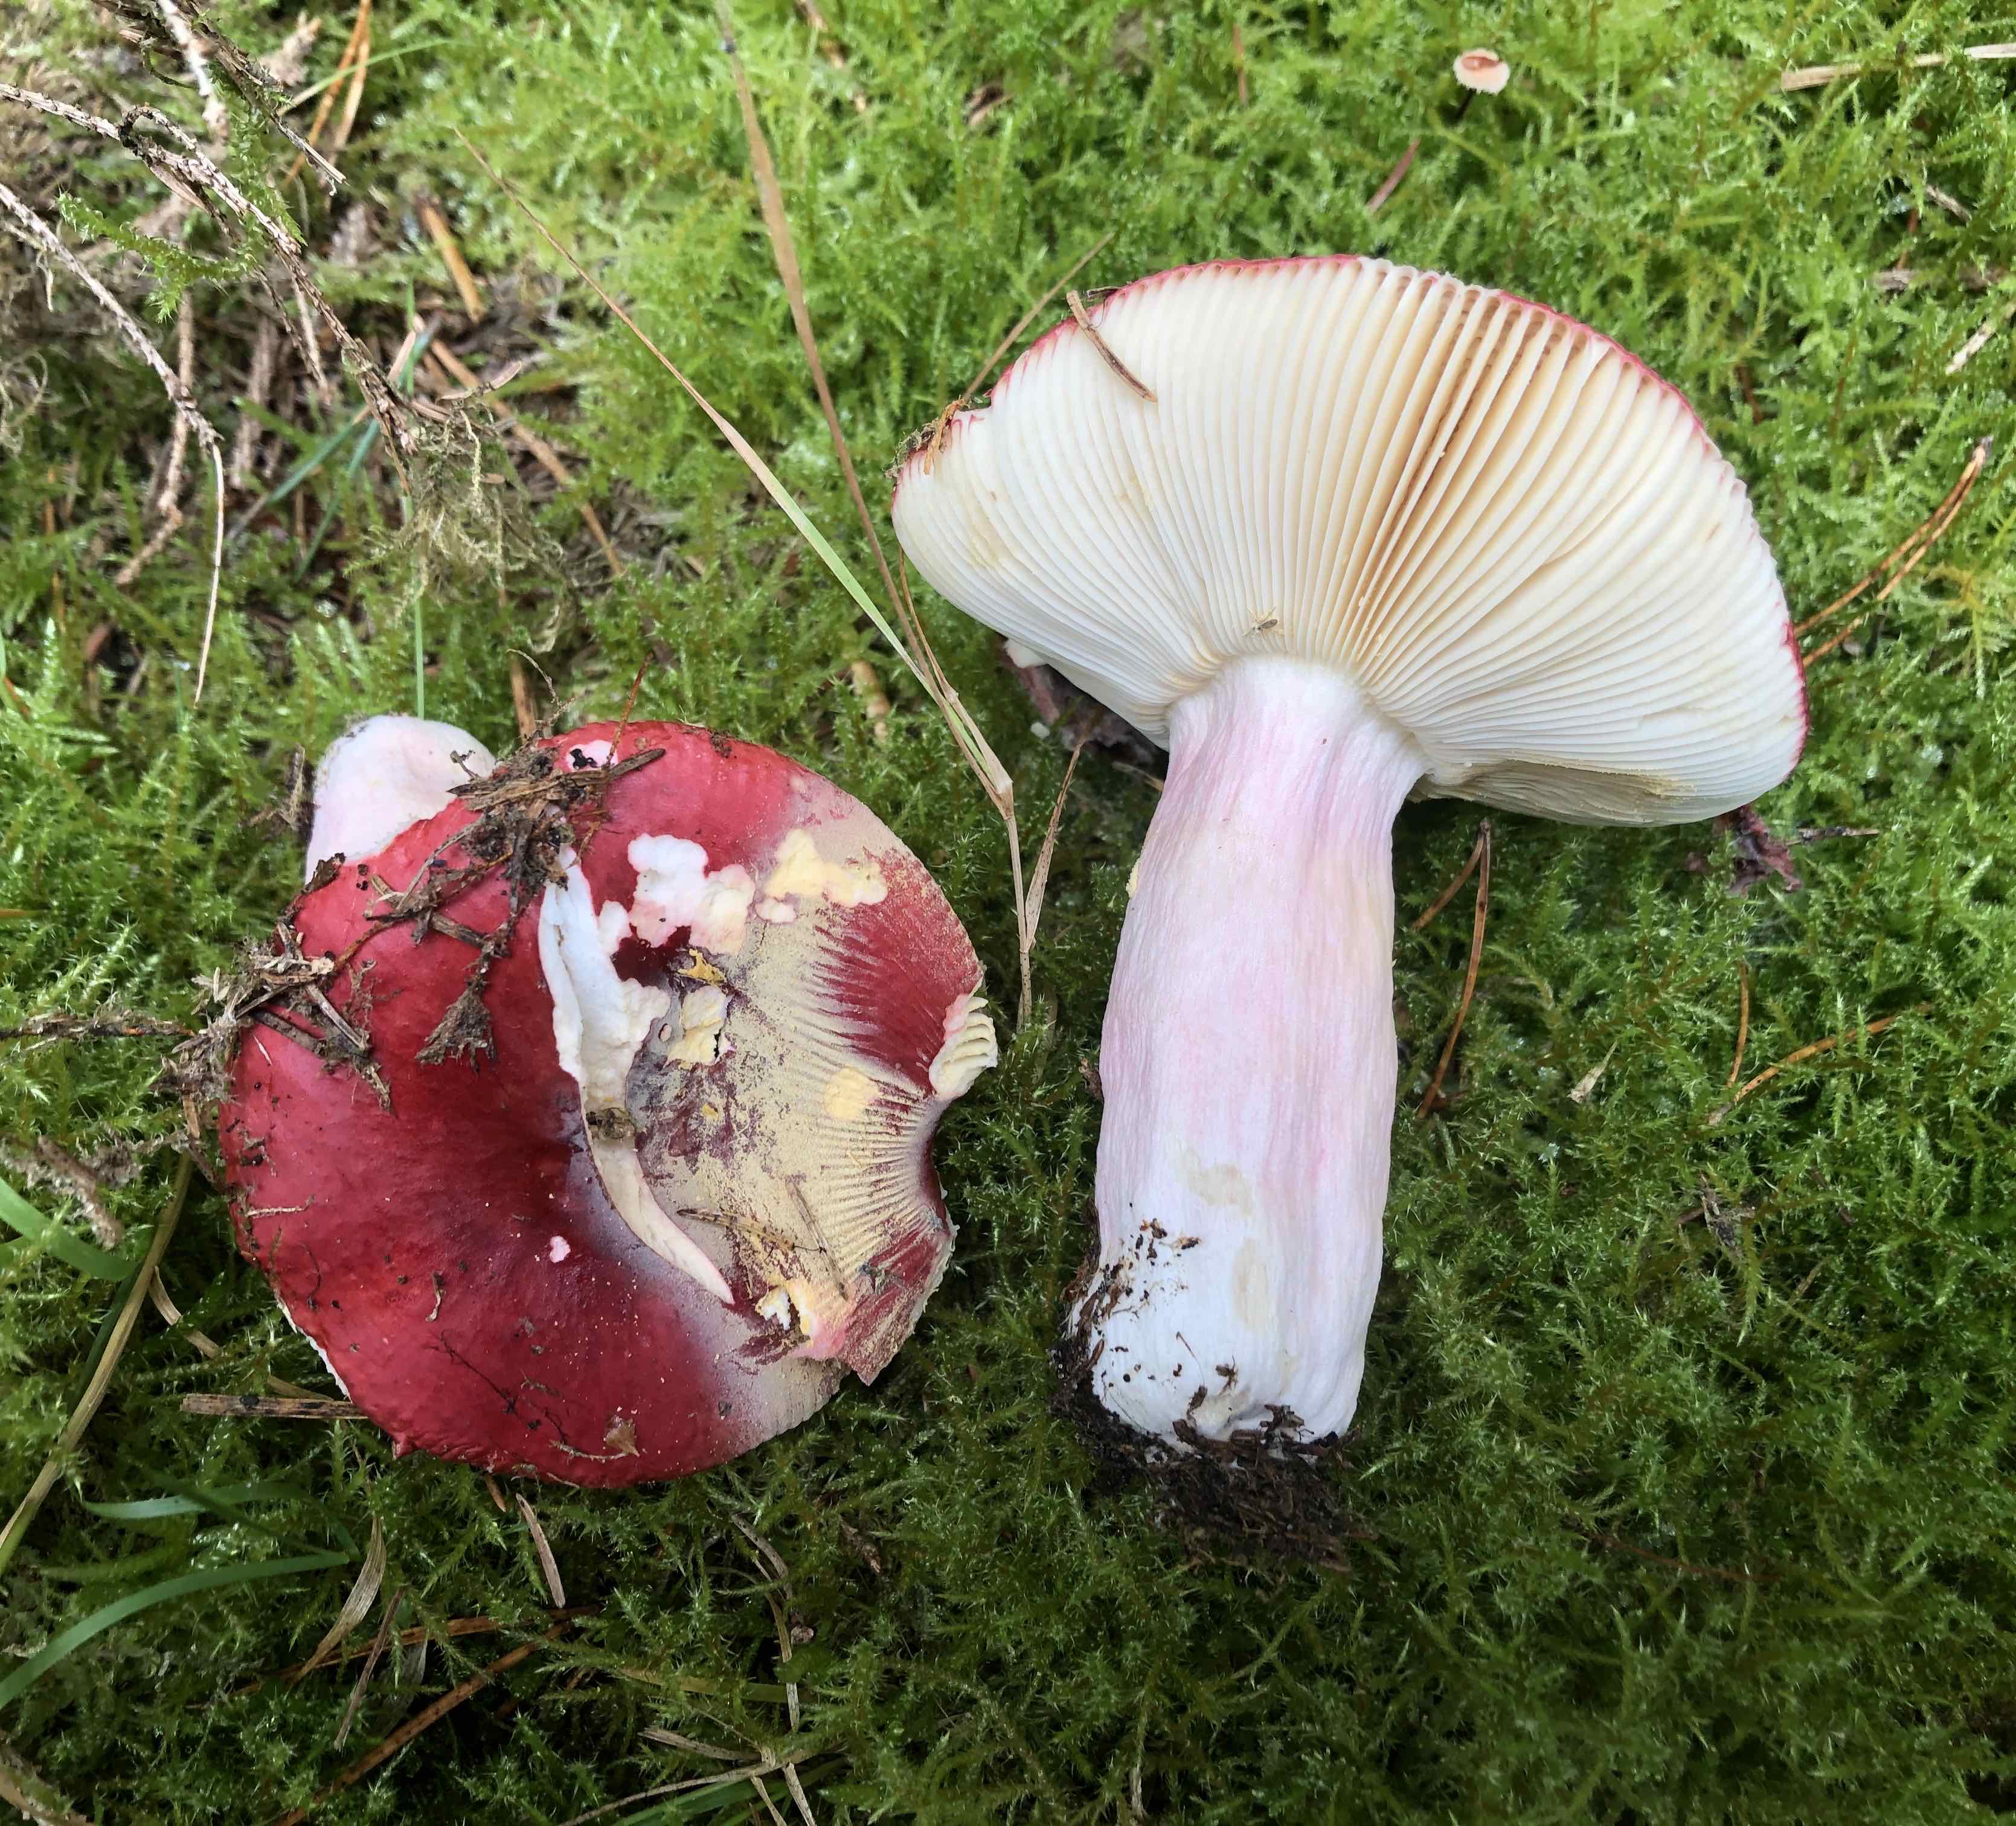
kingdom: Fungi
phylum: Basidiomycota
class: Agaricomycetes
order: Russulales
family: Russulaceae
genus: Russula
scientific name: Russula xerampelina
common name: hummer-skørhat
